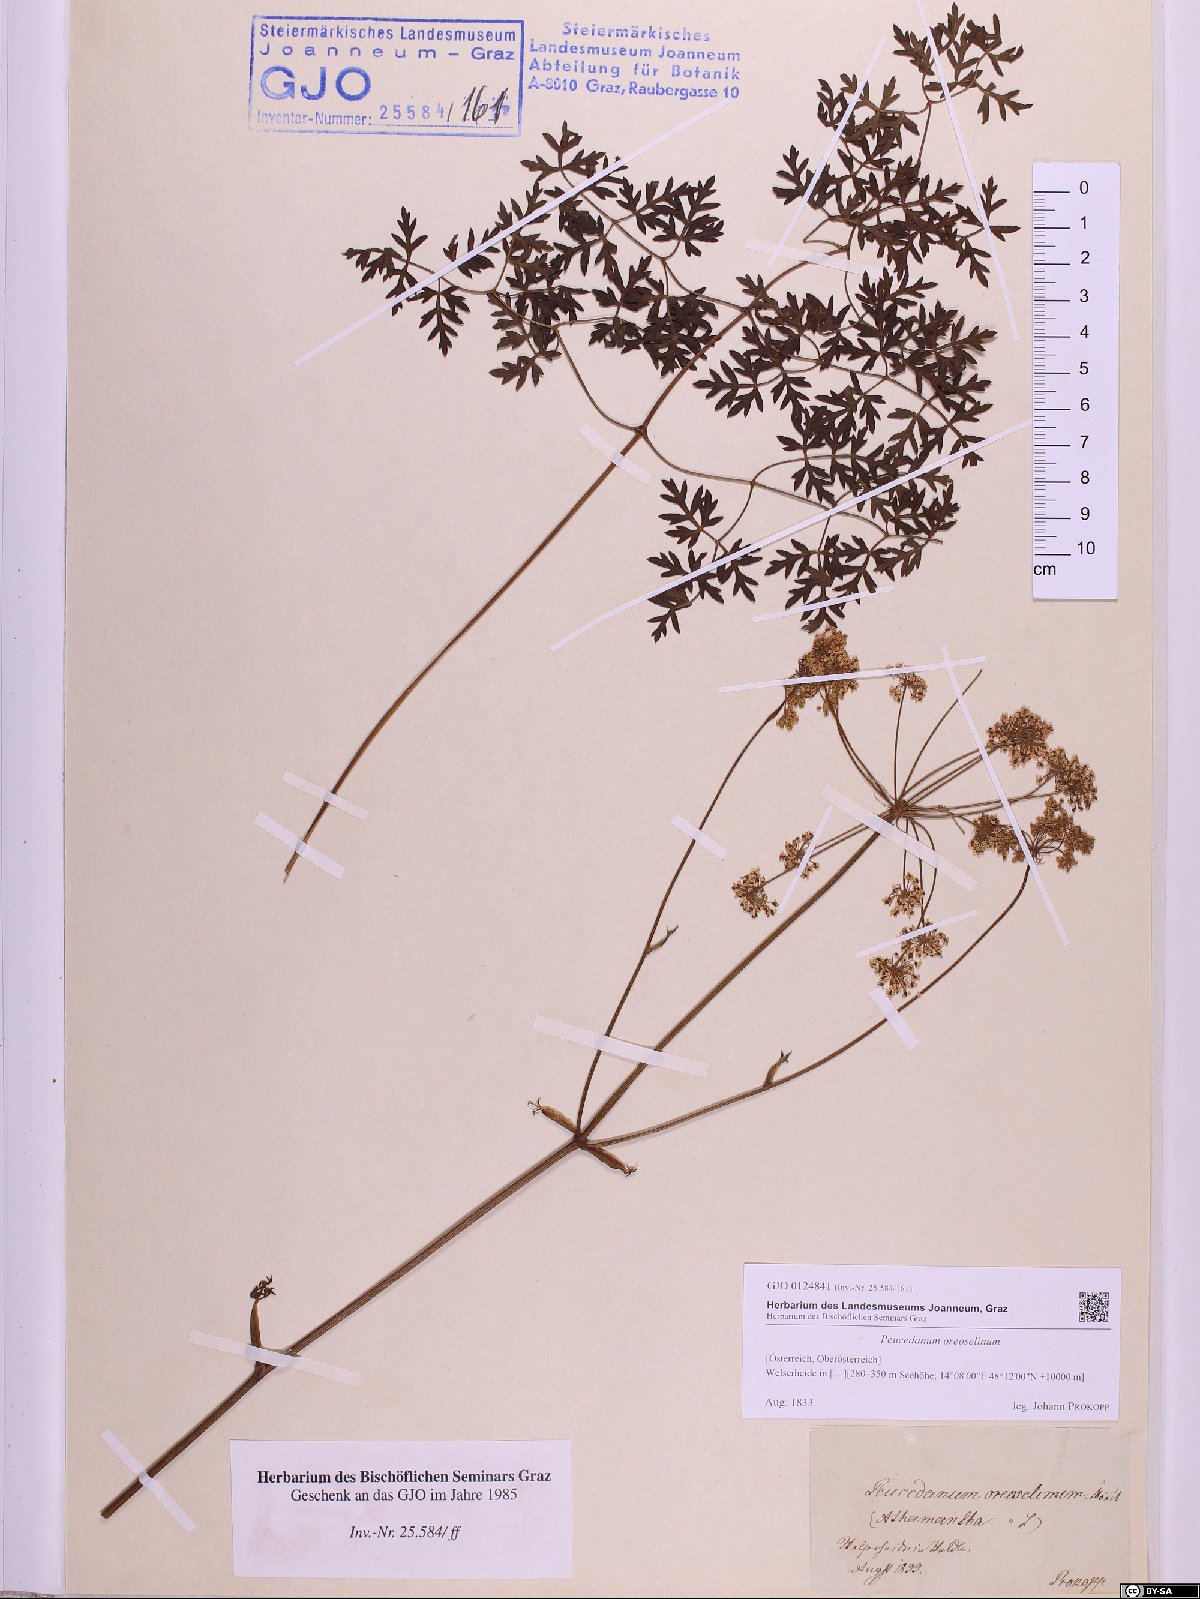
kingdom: Plantae
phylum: Tracheophyta
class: Magnoliopsida
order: Apiales
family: Apiaceae
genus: Oreoselinum
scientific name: Oreoselinum nigrum
